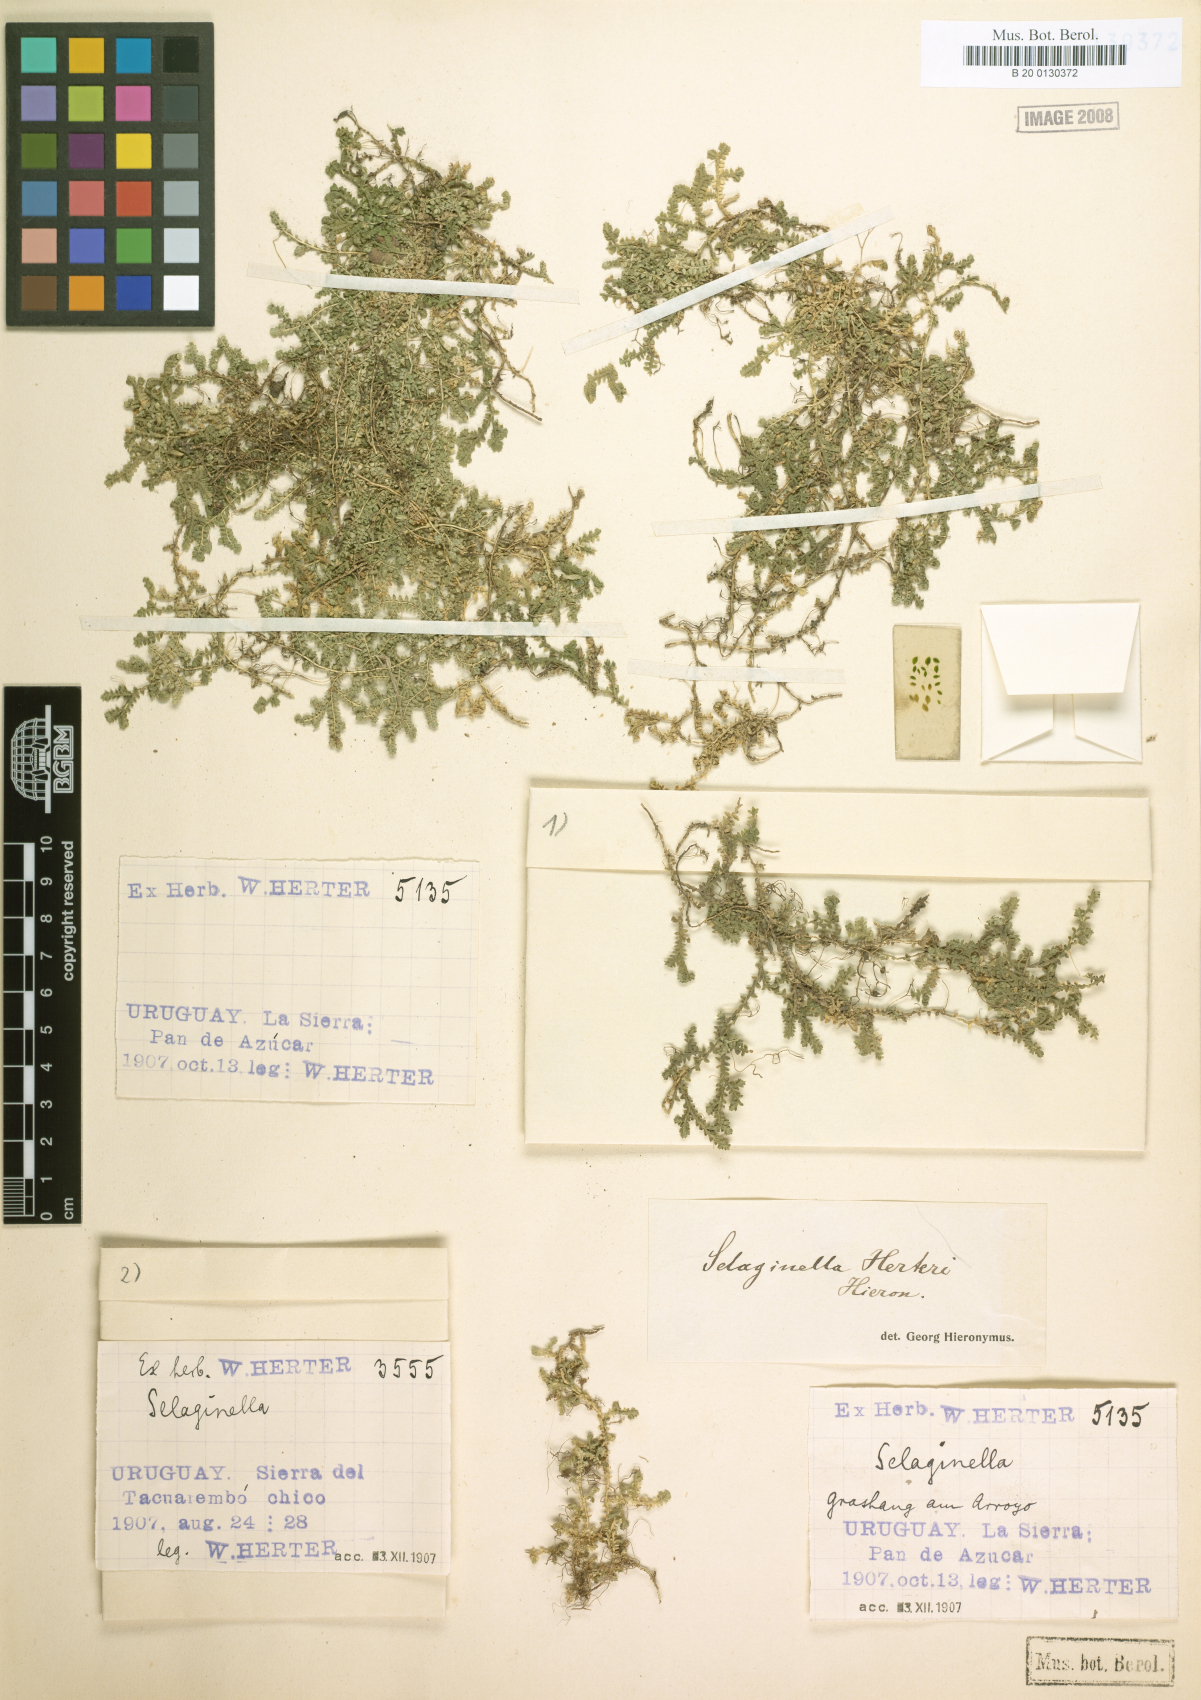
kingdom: Plantae
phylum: Tracheophyta
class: Lycopodiopsida
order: Selaginellales
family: Selaginellaceae
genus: Selaginella
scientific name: Selaginella marginata
